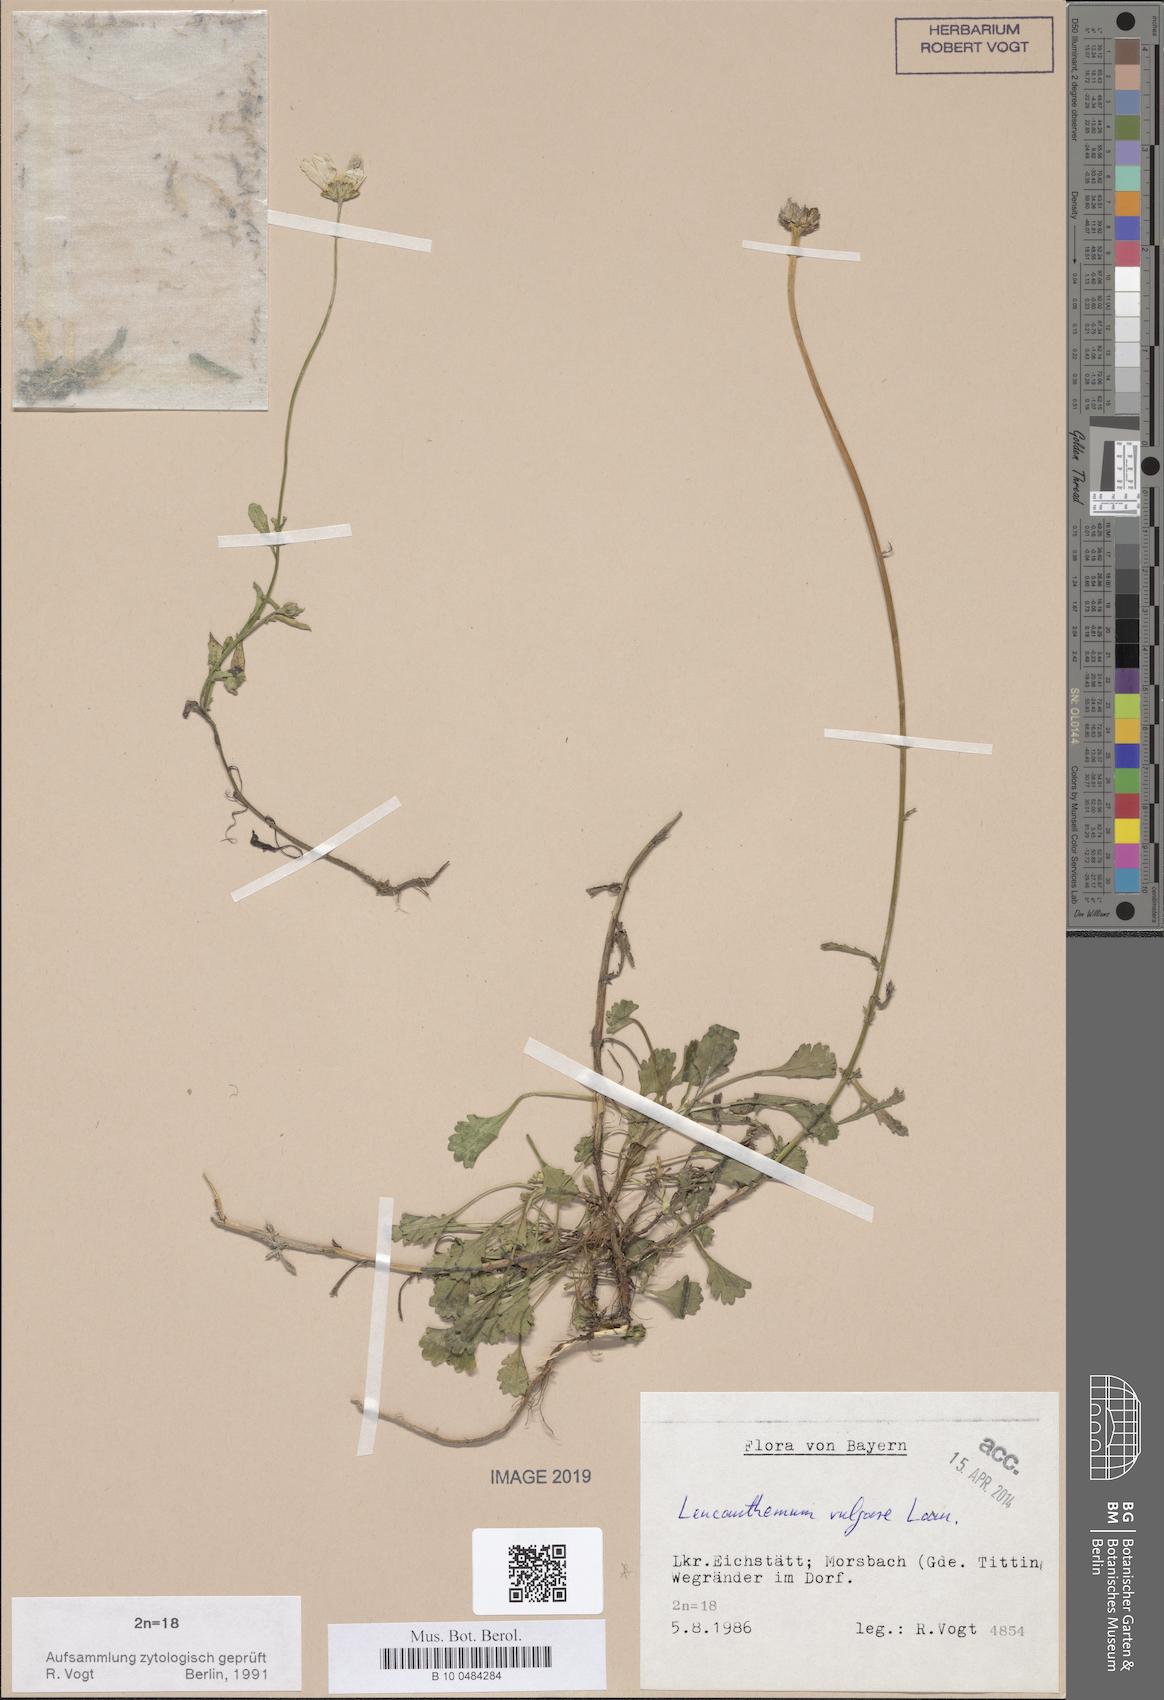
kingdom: Plantae
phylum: Tracheophyta
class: Magnoliopsida
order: Asterales
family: Asteraceae
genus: Leucanthemum
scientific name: Leucanthemum vulgare
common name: Oxeye daisy
